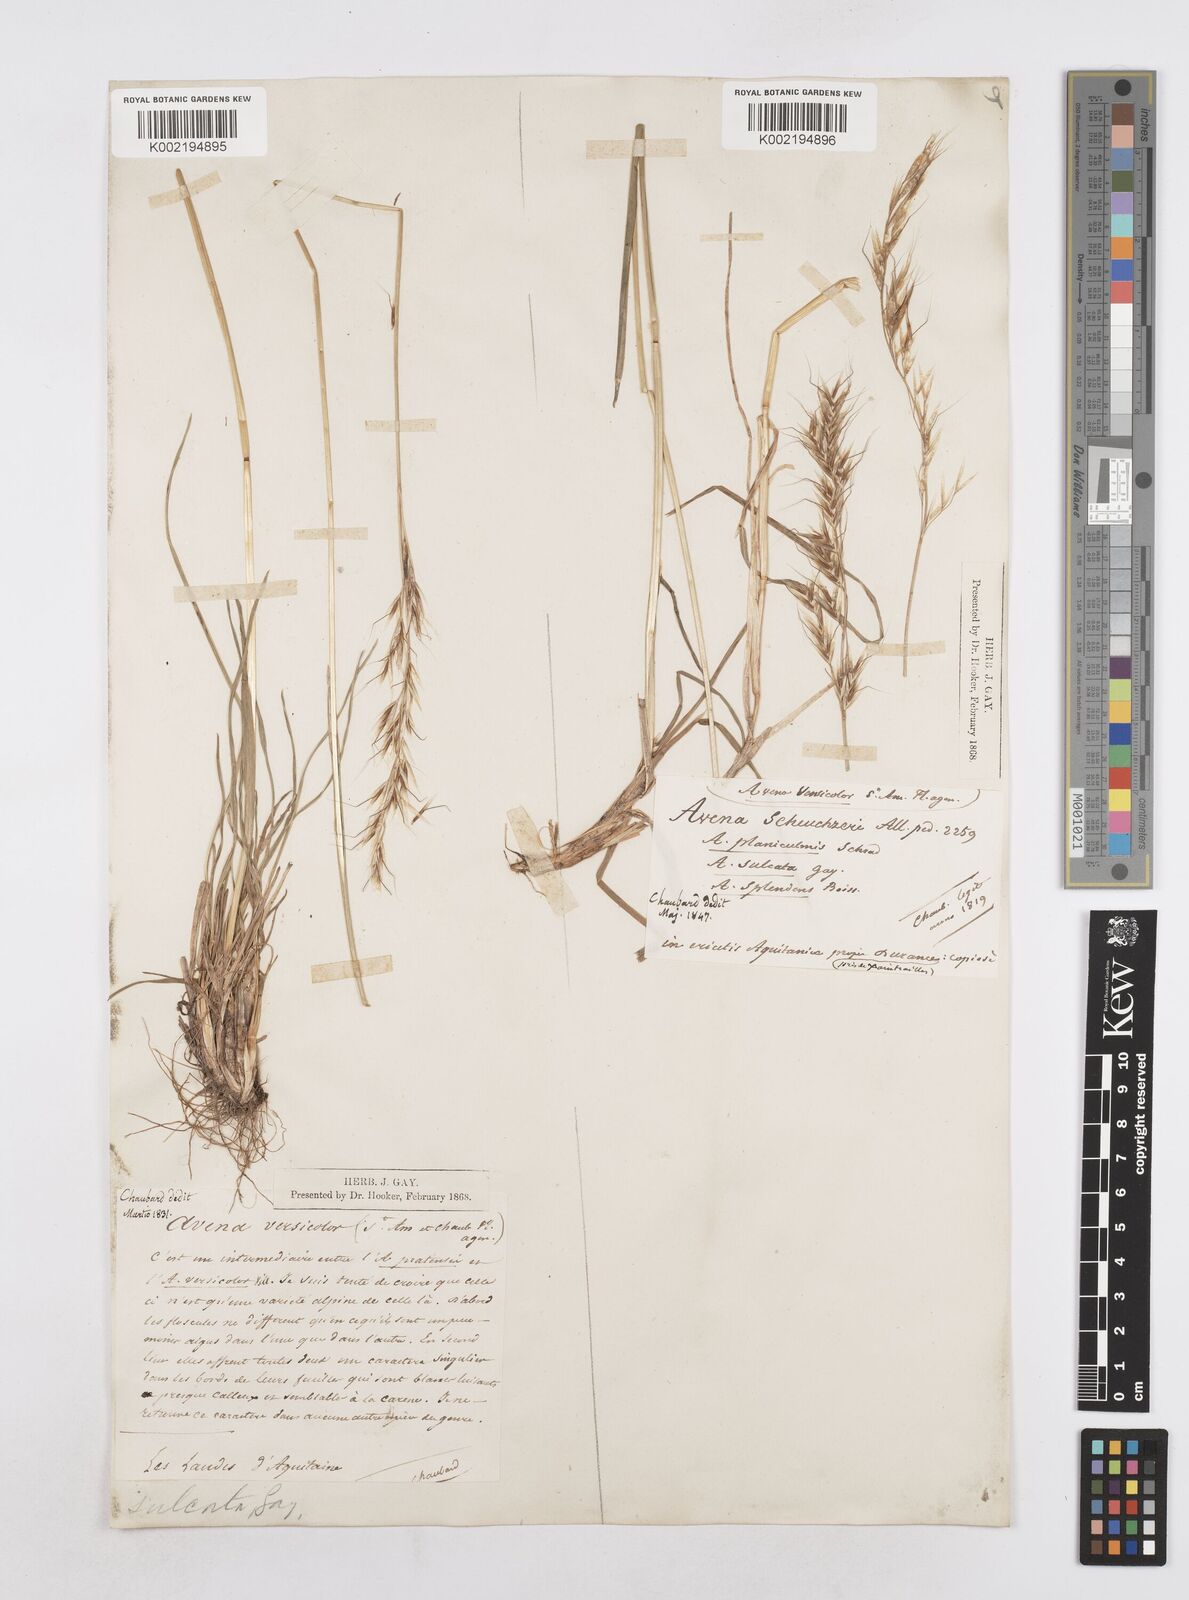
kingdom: Plantae
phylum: Tracheophyta
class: Liliopsida
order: Poales
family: Poaceae
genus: Helictotrichon
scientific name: Helictotrichon
